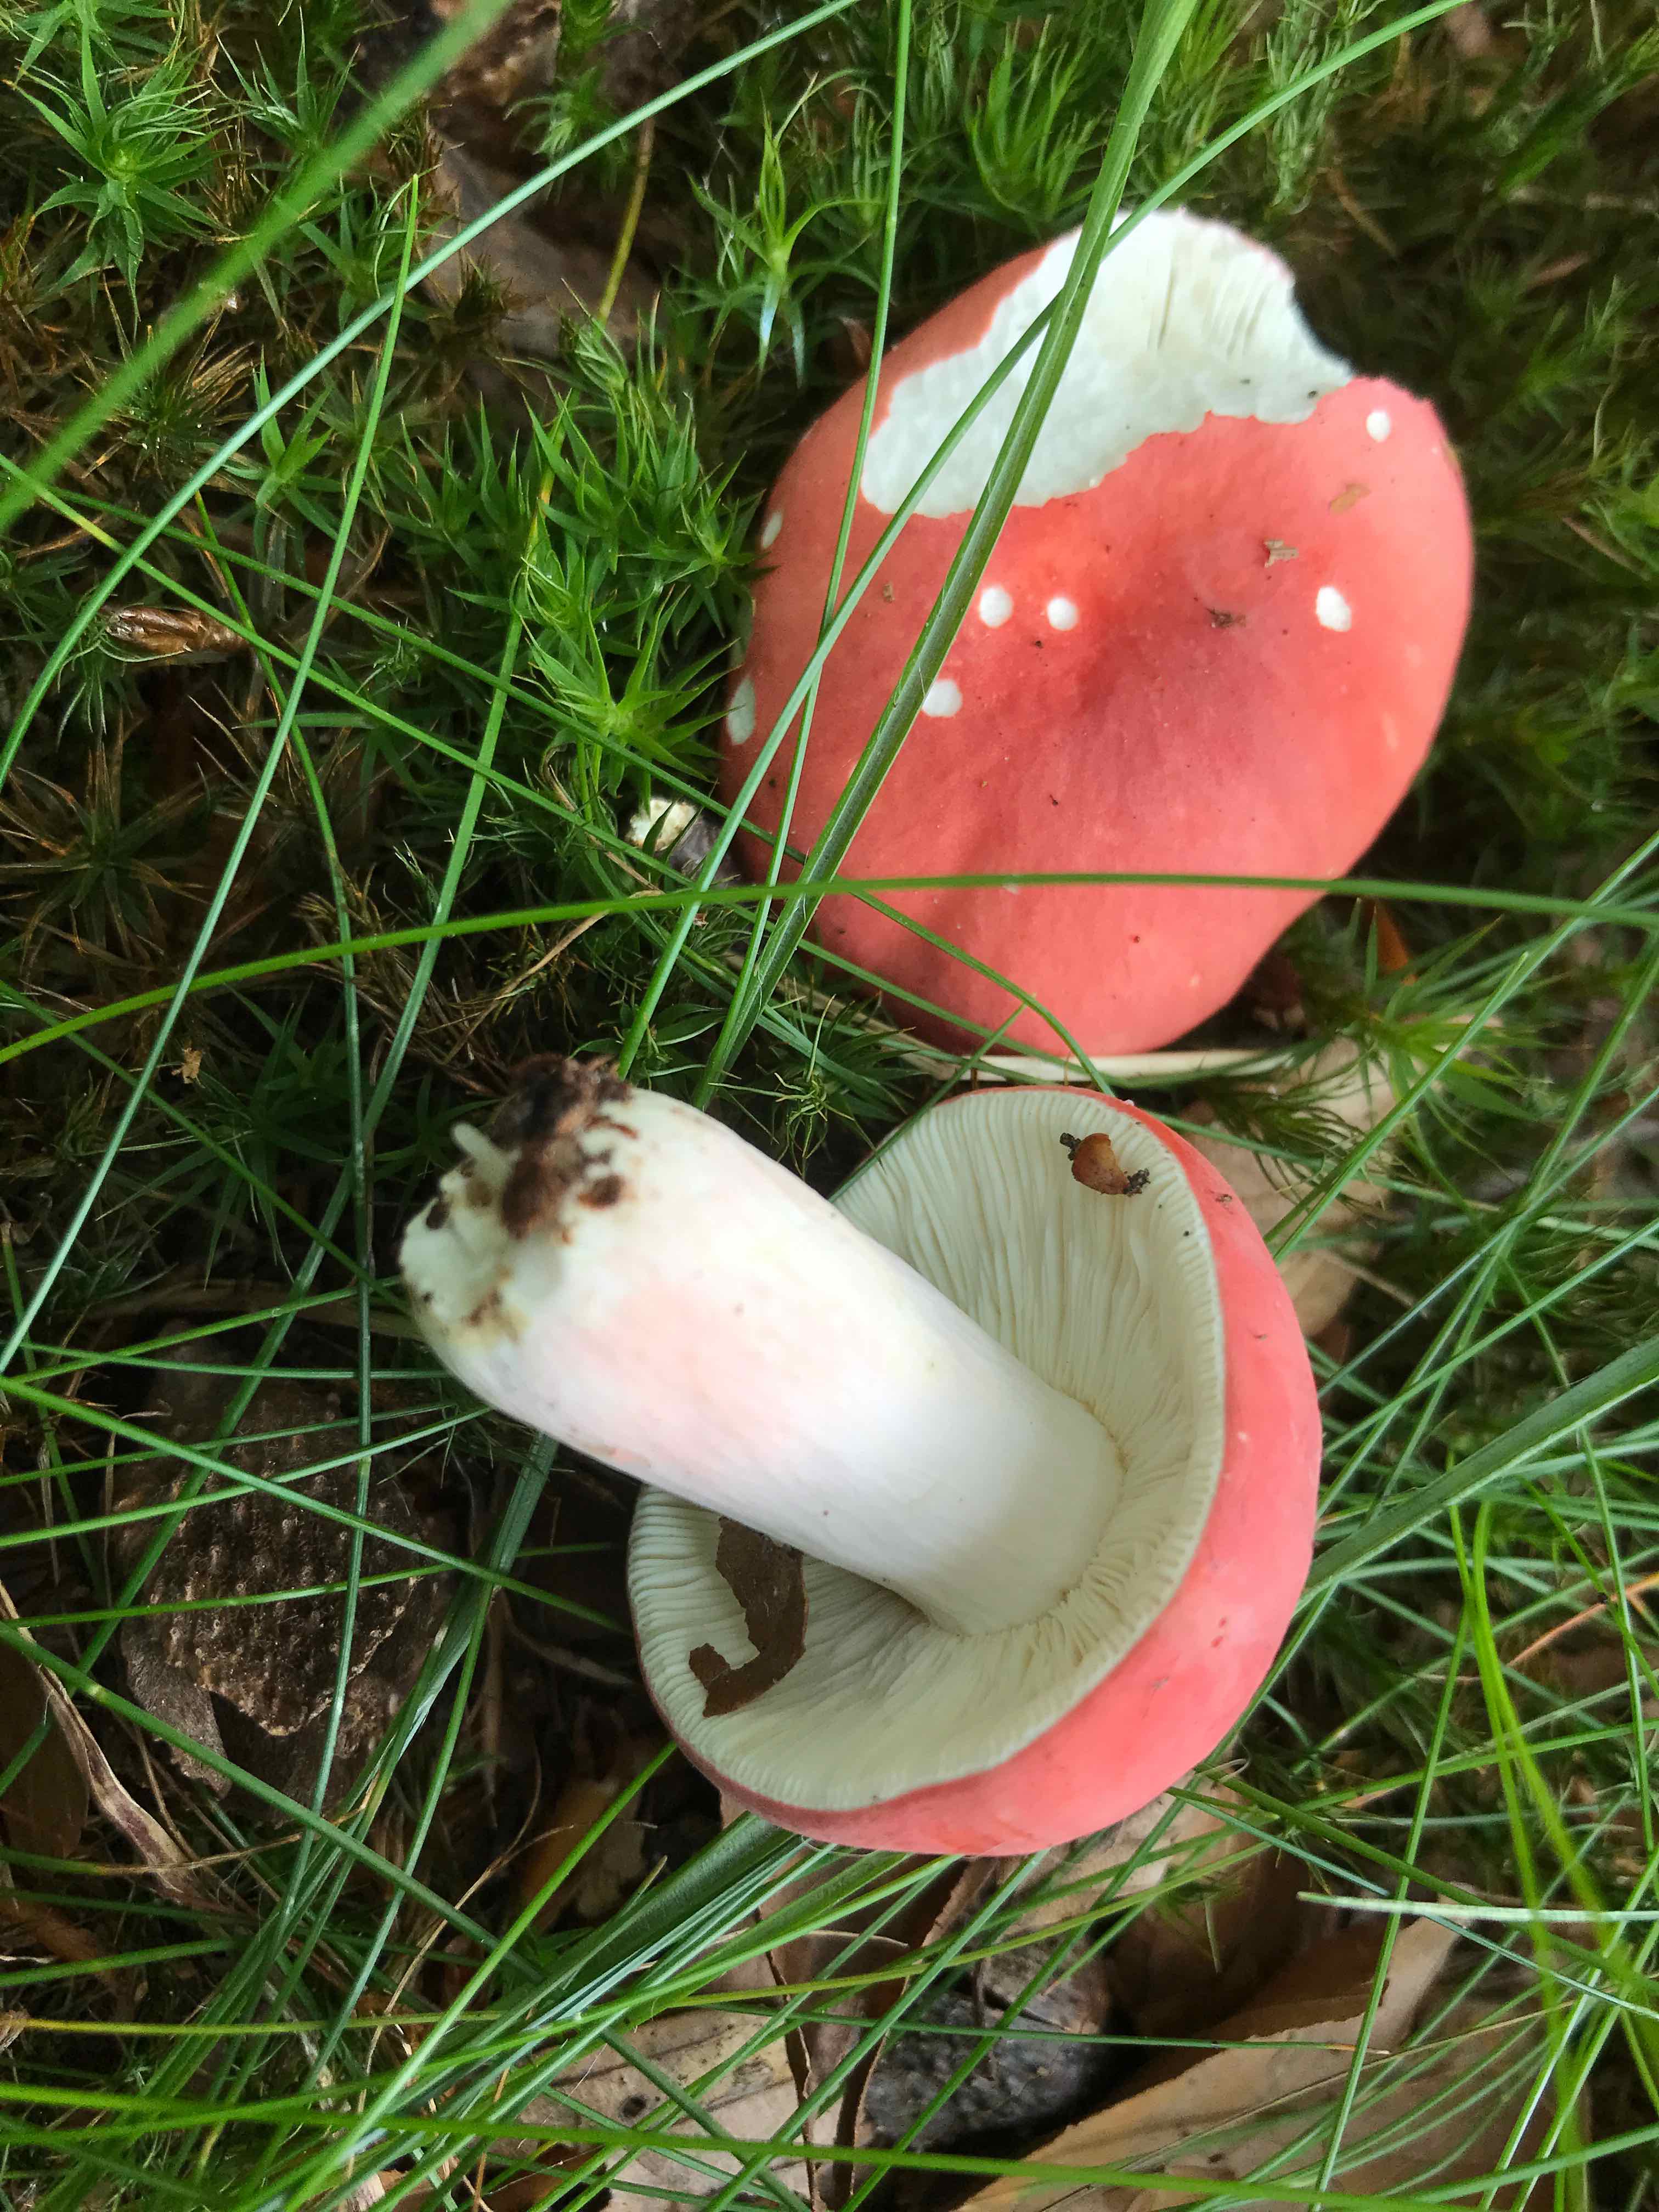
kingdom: Fungi
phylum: Basidiomycota
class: Agaricomycetes
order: Russulales
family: Russulaceae
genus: Russula
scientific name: Russula rosea
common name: fastkødet skørhat
